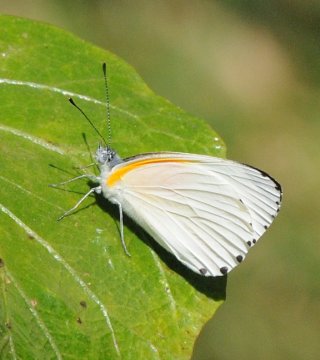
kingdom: Animalia
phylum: Arthropoda
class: Insecta
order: Lepidoptera
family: Pieridae
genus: Mylothris
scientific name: Mylothris rueppellii
